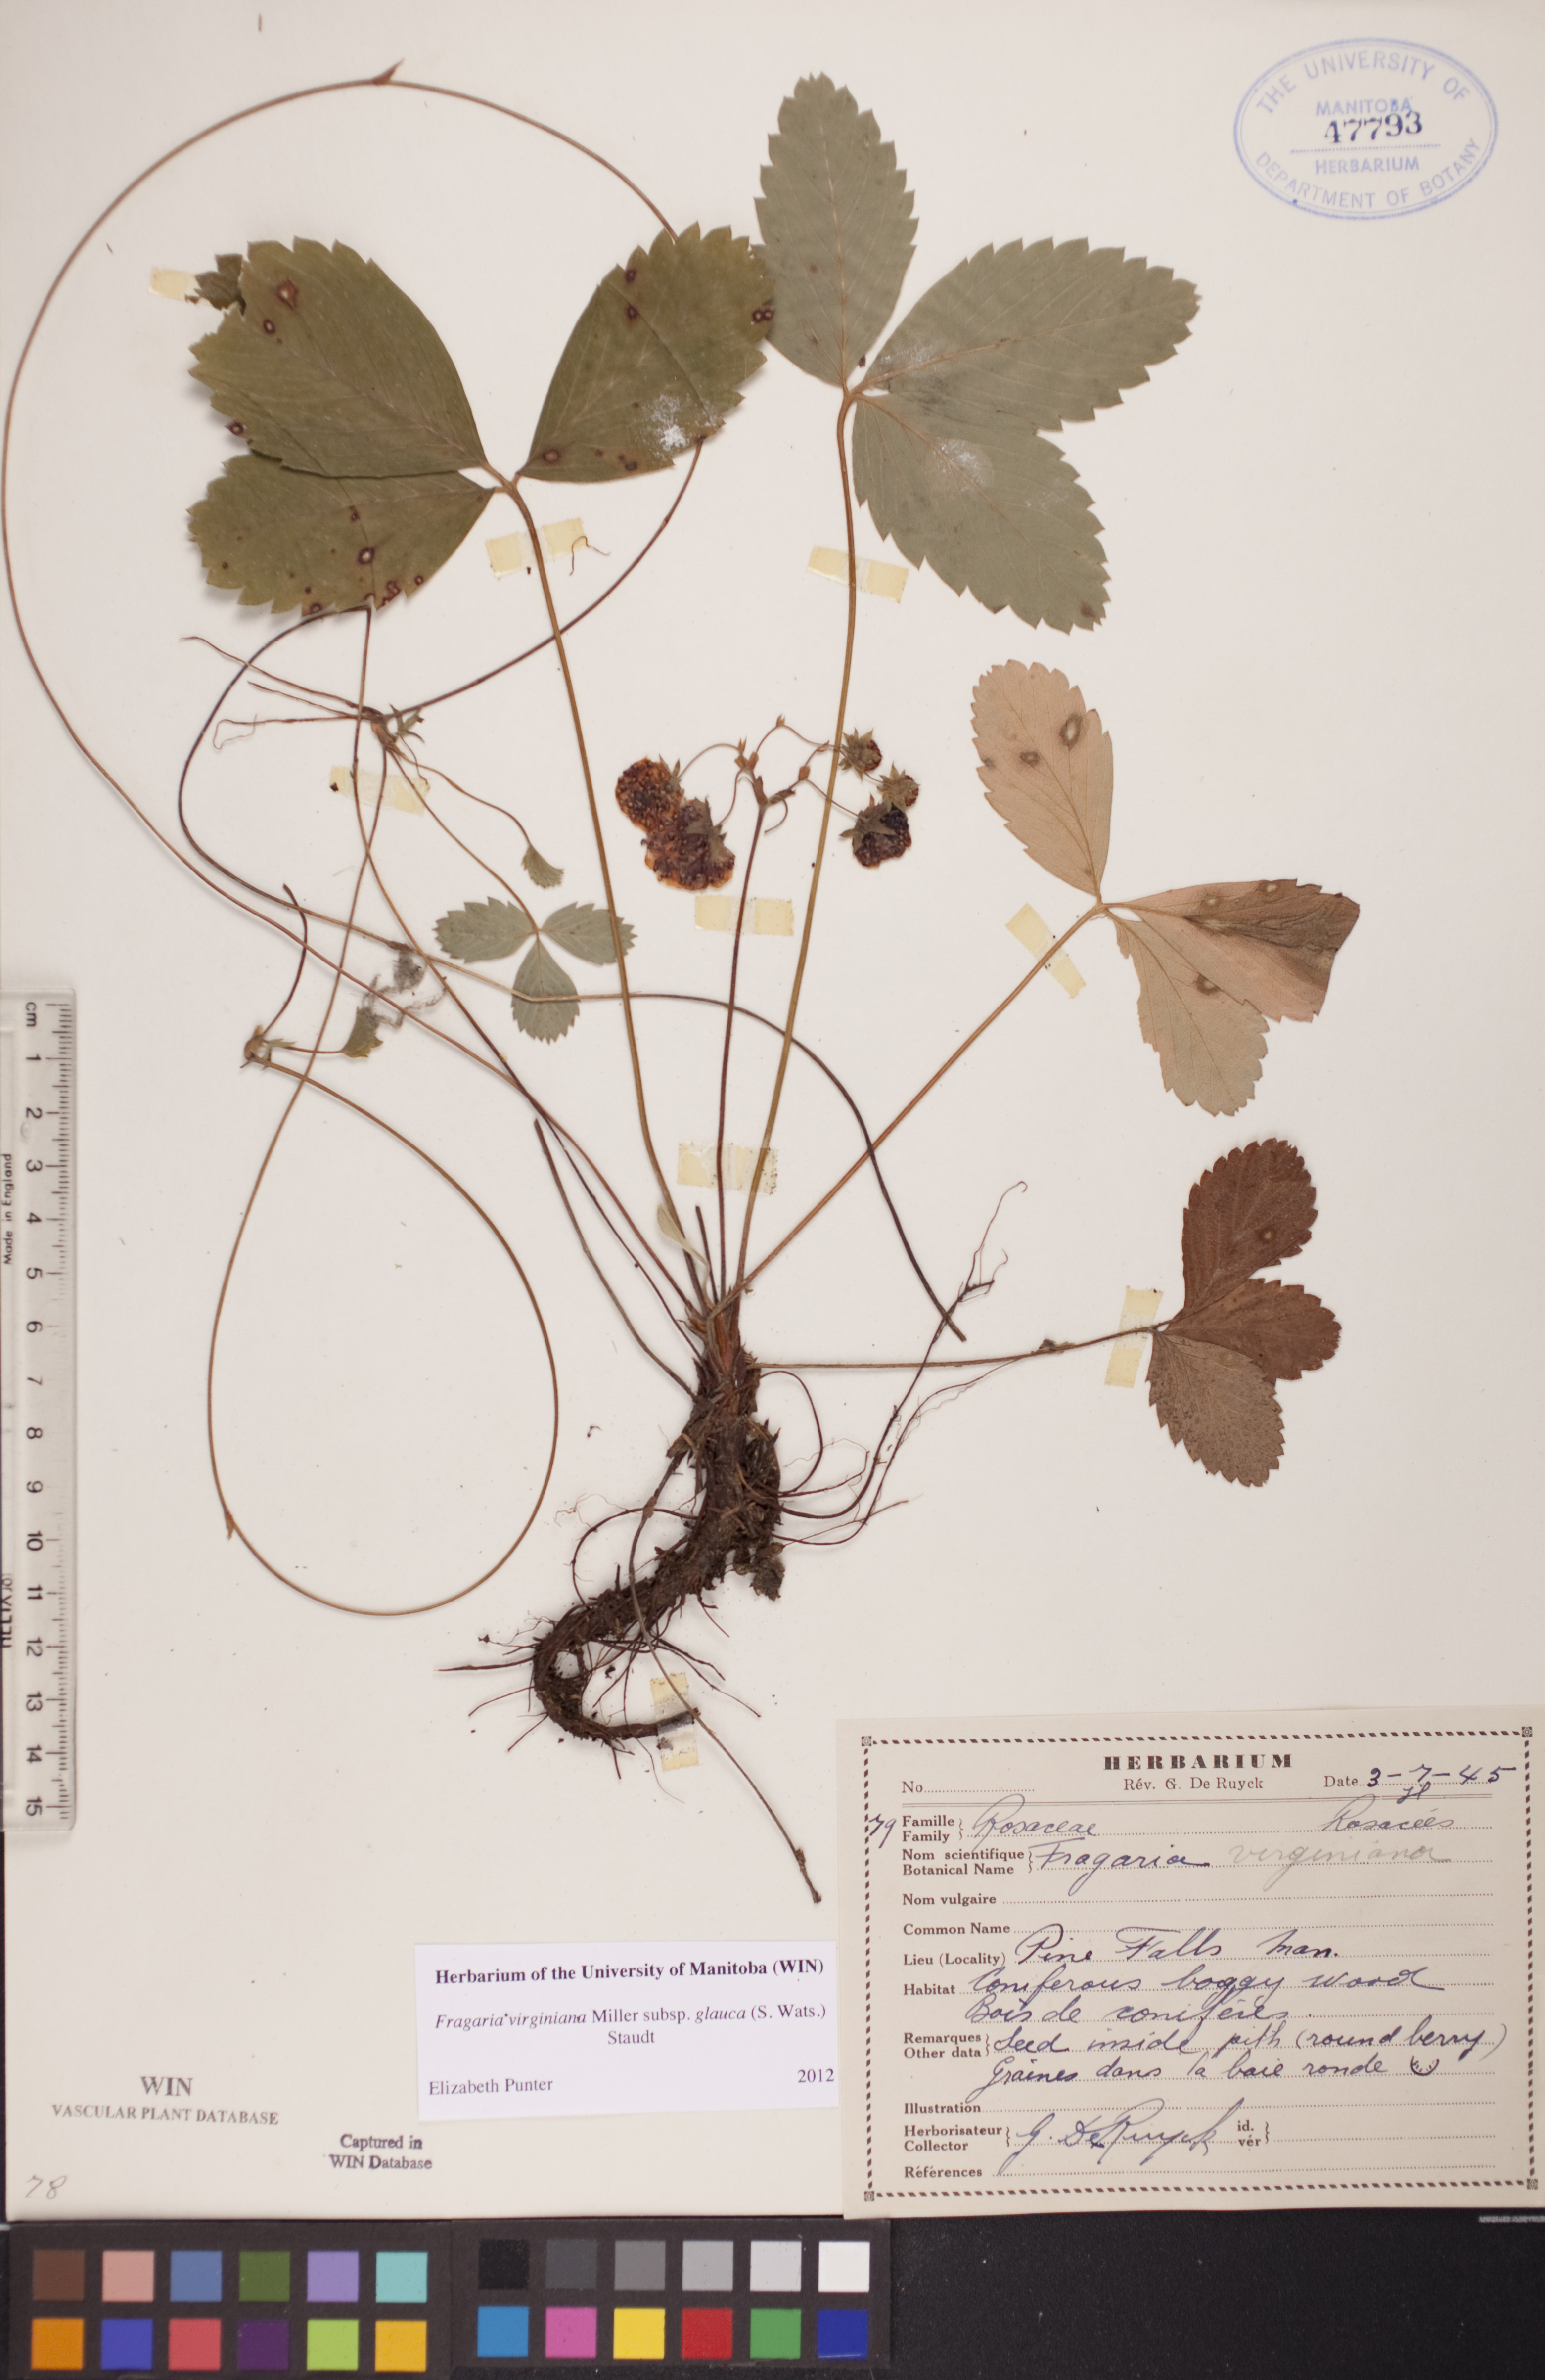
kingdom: Plantae
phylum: Tracheophyta
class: Magnoliopsida
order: Rosales
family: Rosaceae
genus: Fragaria
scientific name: Fragaria virginiana
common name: Thickleaved wild strawberry
